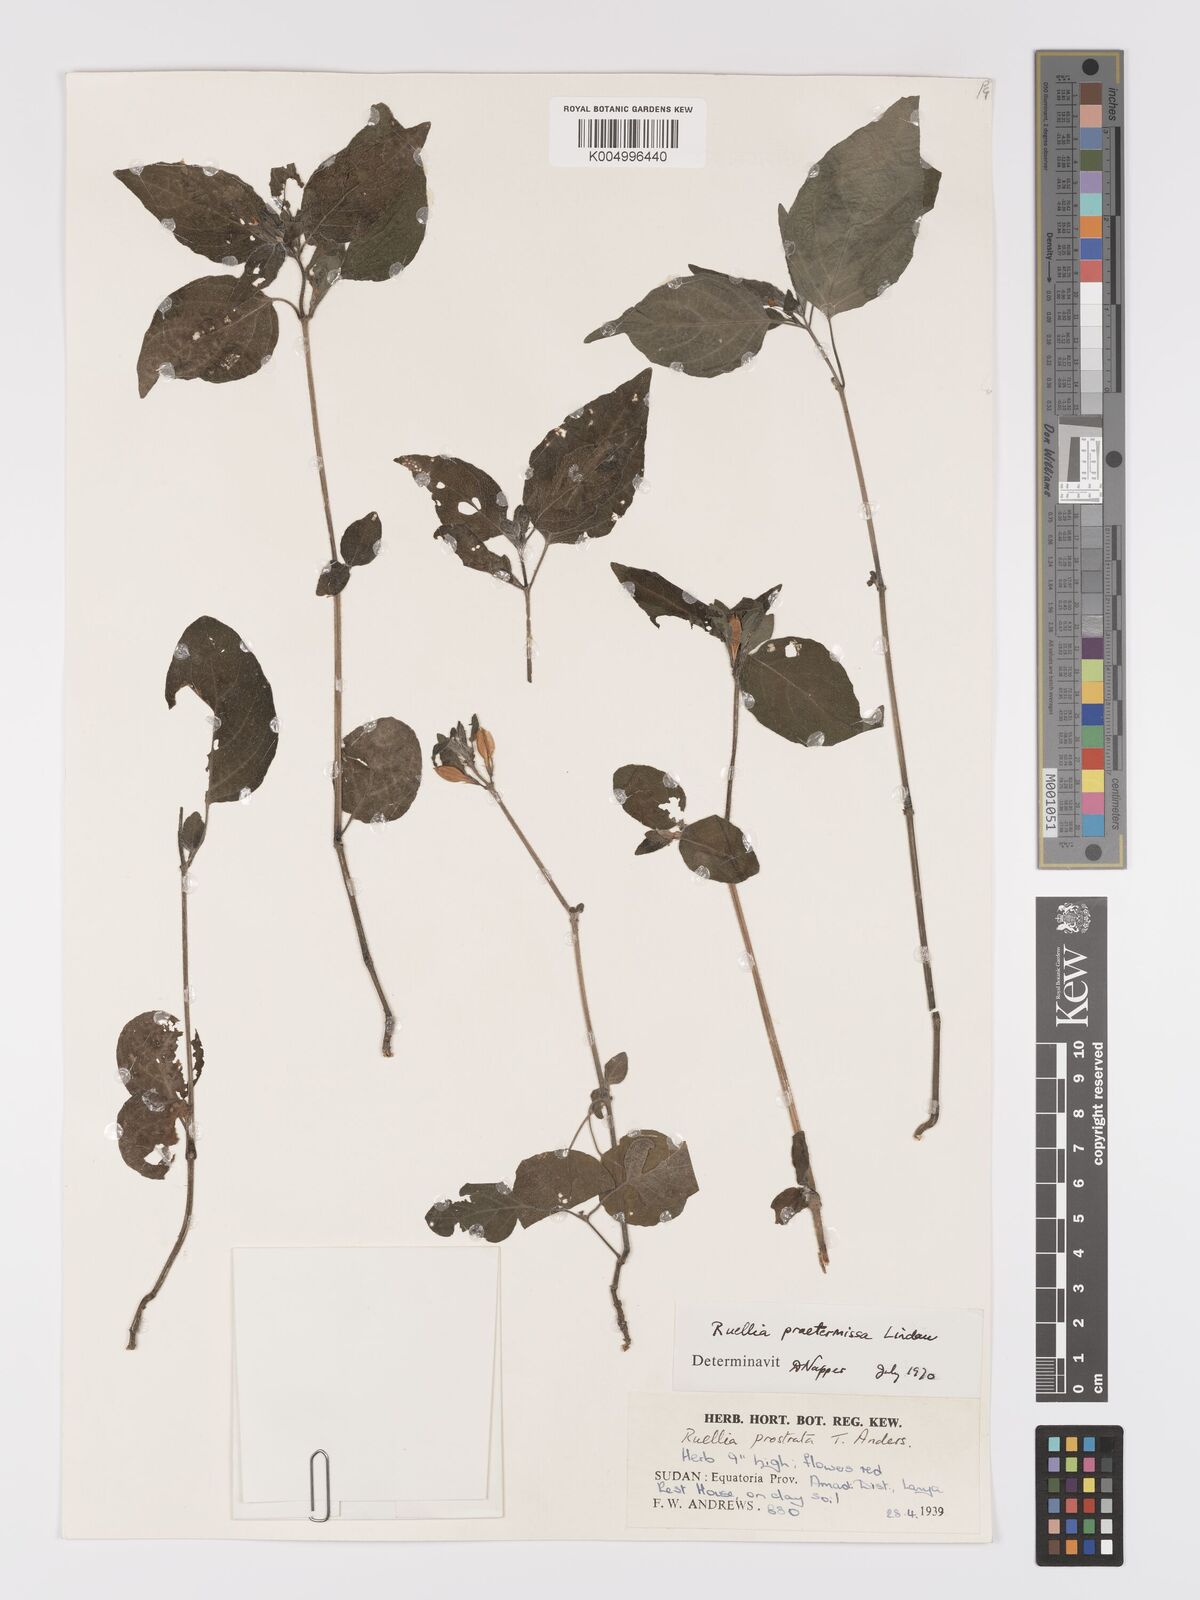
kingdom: Plantae
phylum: Tracheophyta
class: Magnoliopsida
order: Lamiales
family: Acanthaceae
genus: Ruellia
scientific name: Ruellia praetermissa
